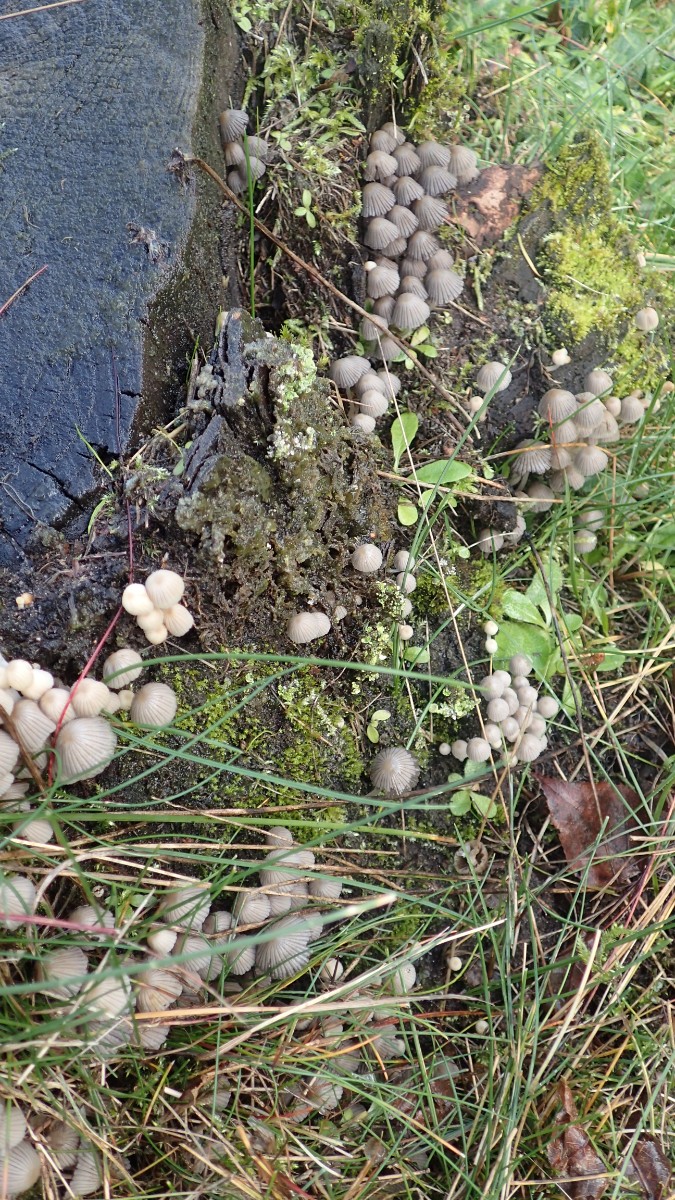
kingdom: Fungi
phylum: Basidiomycota
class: Agaricomycetes
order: Agaricales
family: Psathyrellaceae
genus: Coprinellus
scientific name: Coprinellus disseminatus
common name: bredsået blækhat
